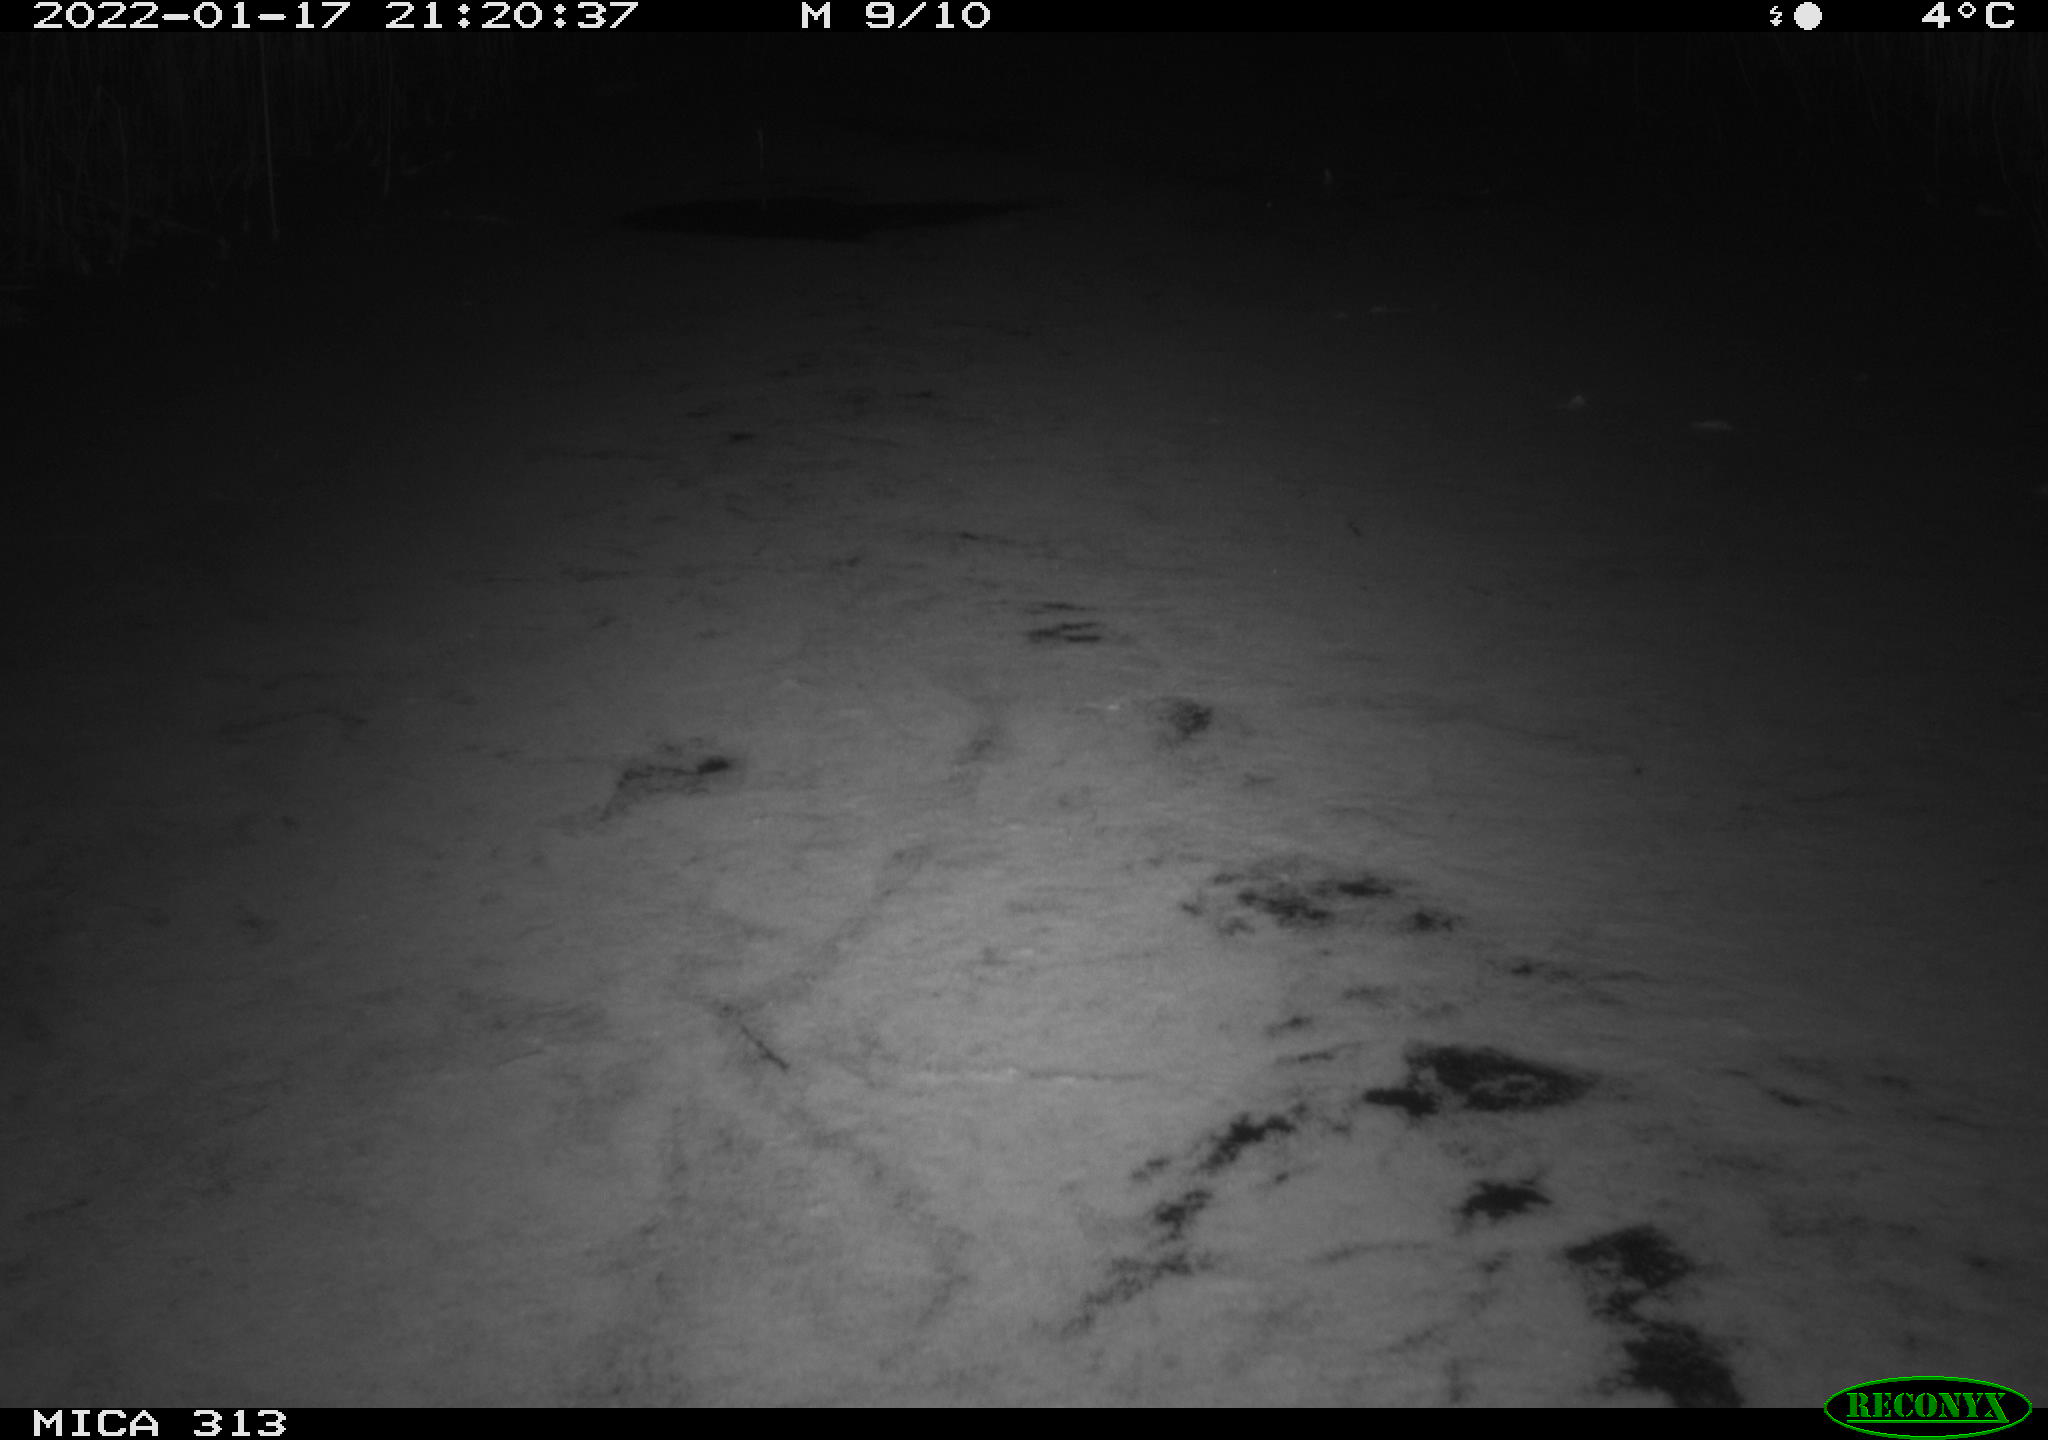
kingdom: Animalia
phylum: Chordata
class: Aves
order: Gruiformes
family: Rallidae
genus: Fulica
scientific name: Fulica atra
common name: Eurasian coot
